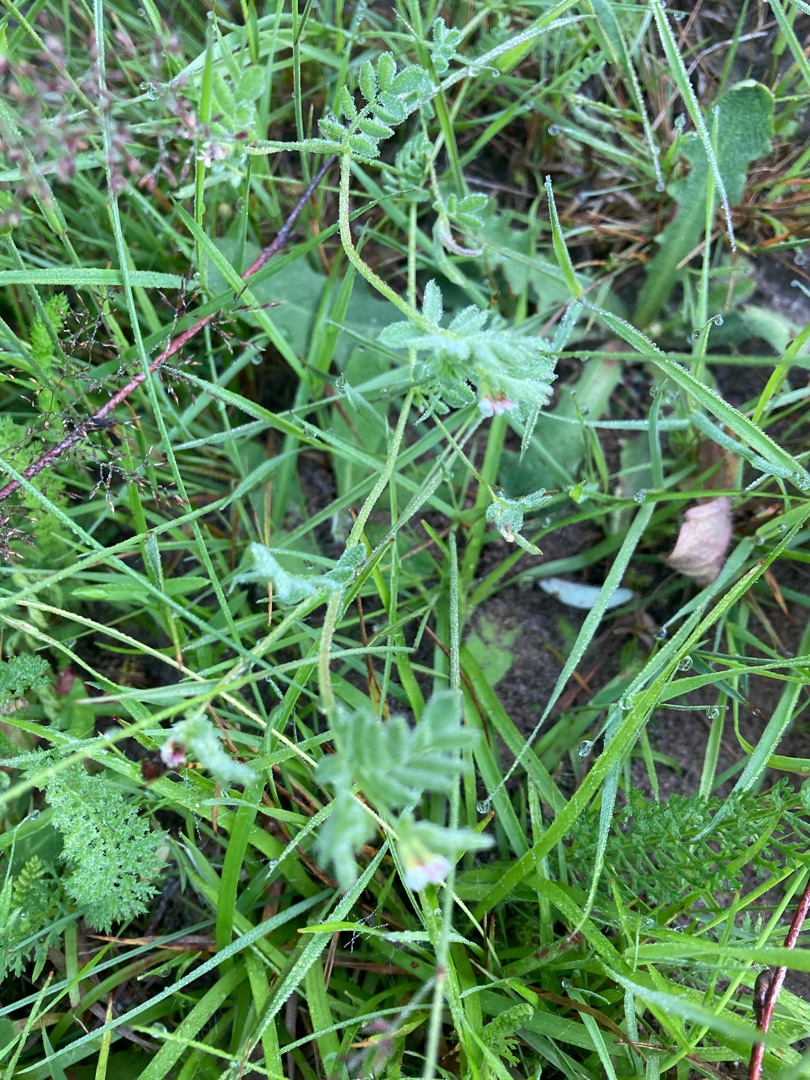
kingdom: Plantae
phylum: Tracheophyta
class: Magnoliopsida
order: Fabales
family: Fabaceae
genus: Ornithopus
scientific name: Ornithopus perpusillus
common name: Liden fugleklo
